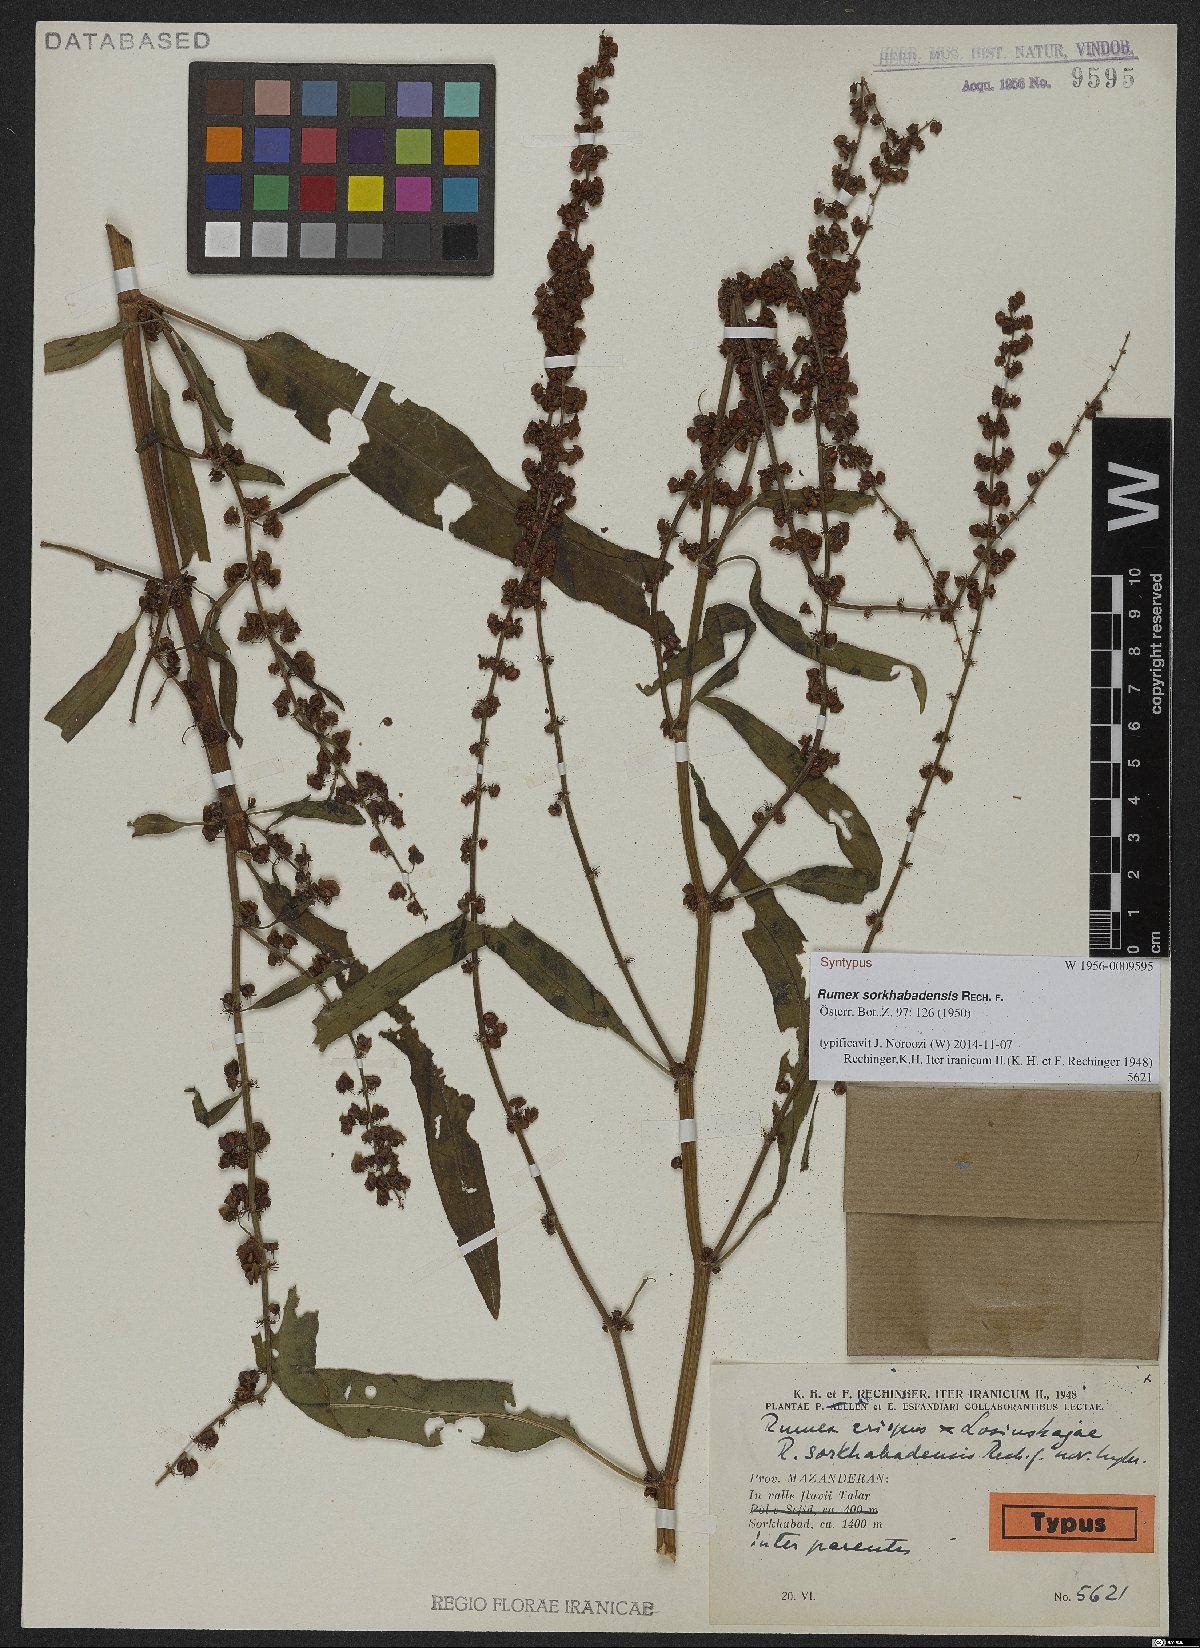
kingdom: Plantae
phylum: Tracheophyta
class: Magnoliopsida
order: Caryophyllales
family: Polygonaceae
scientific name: Polygonaceae
